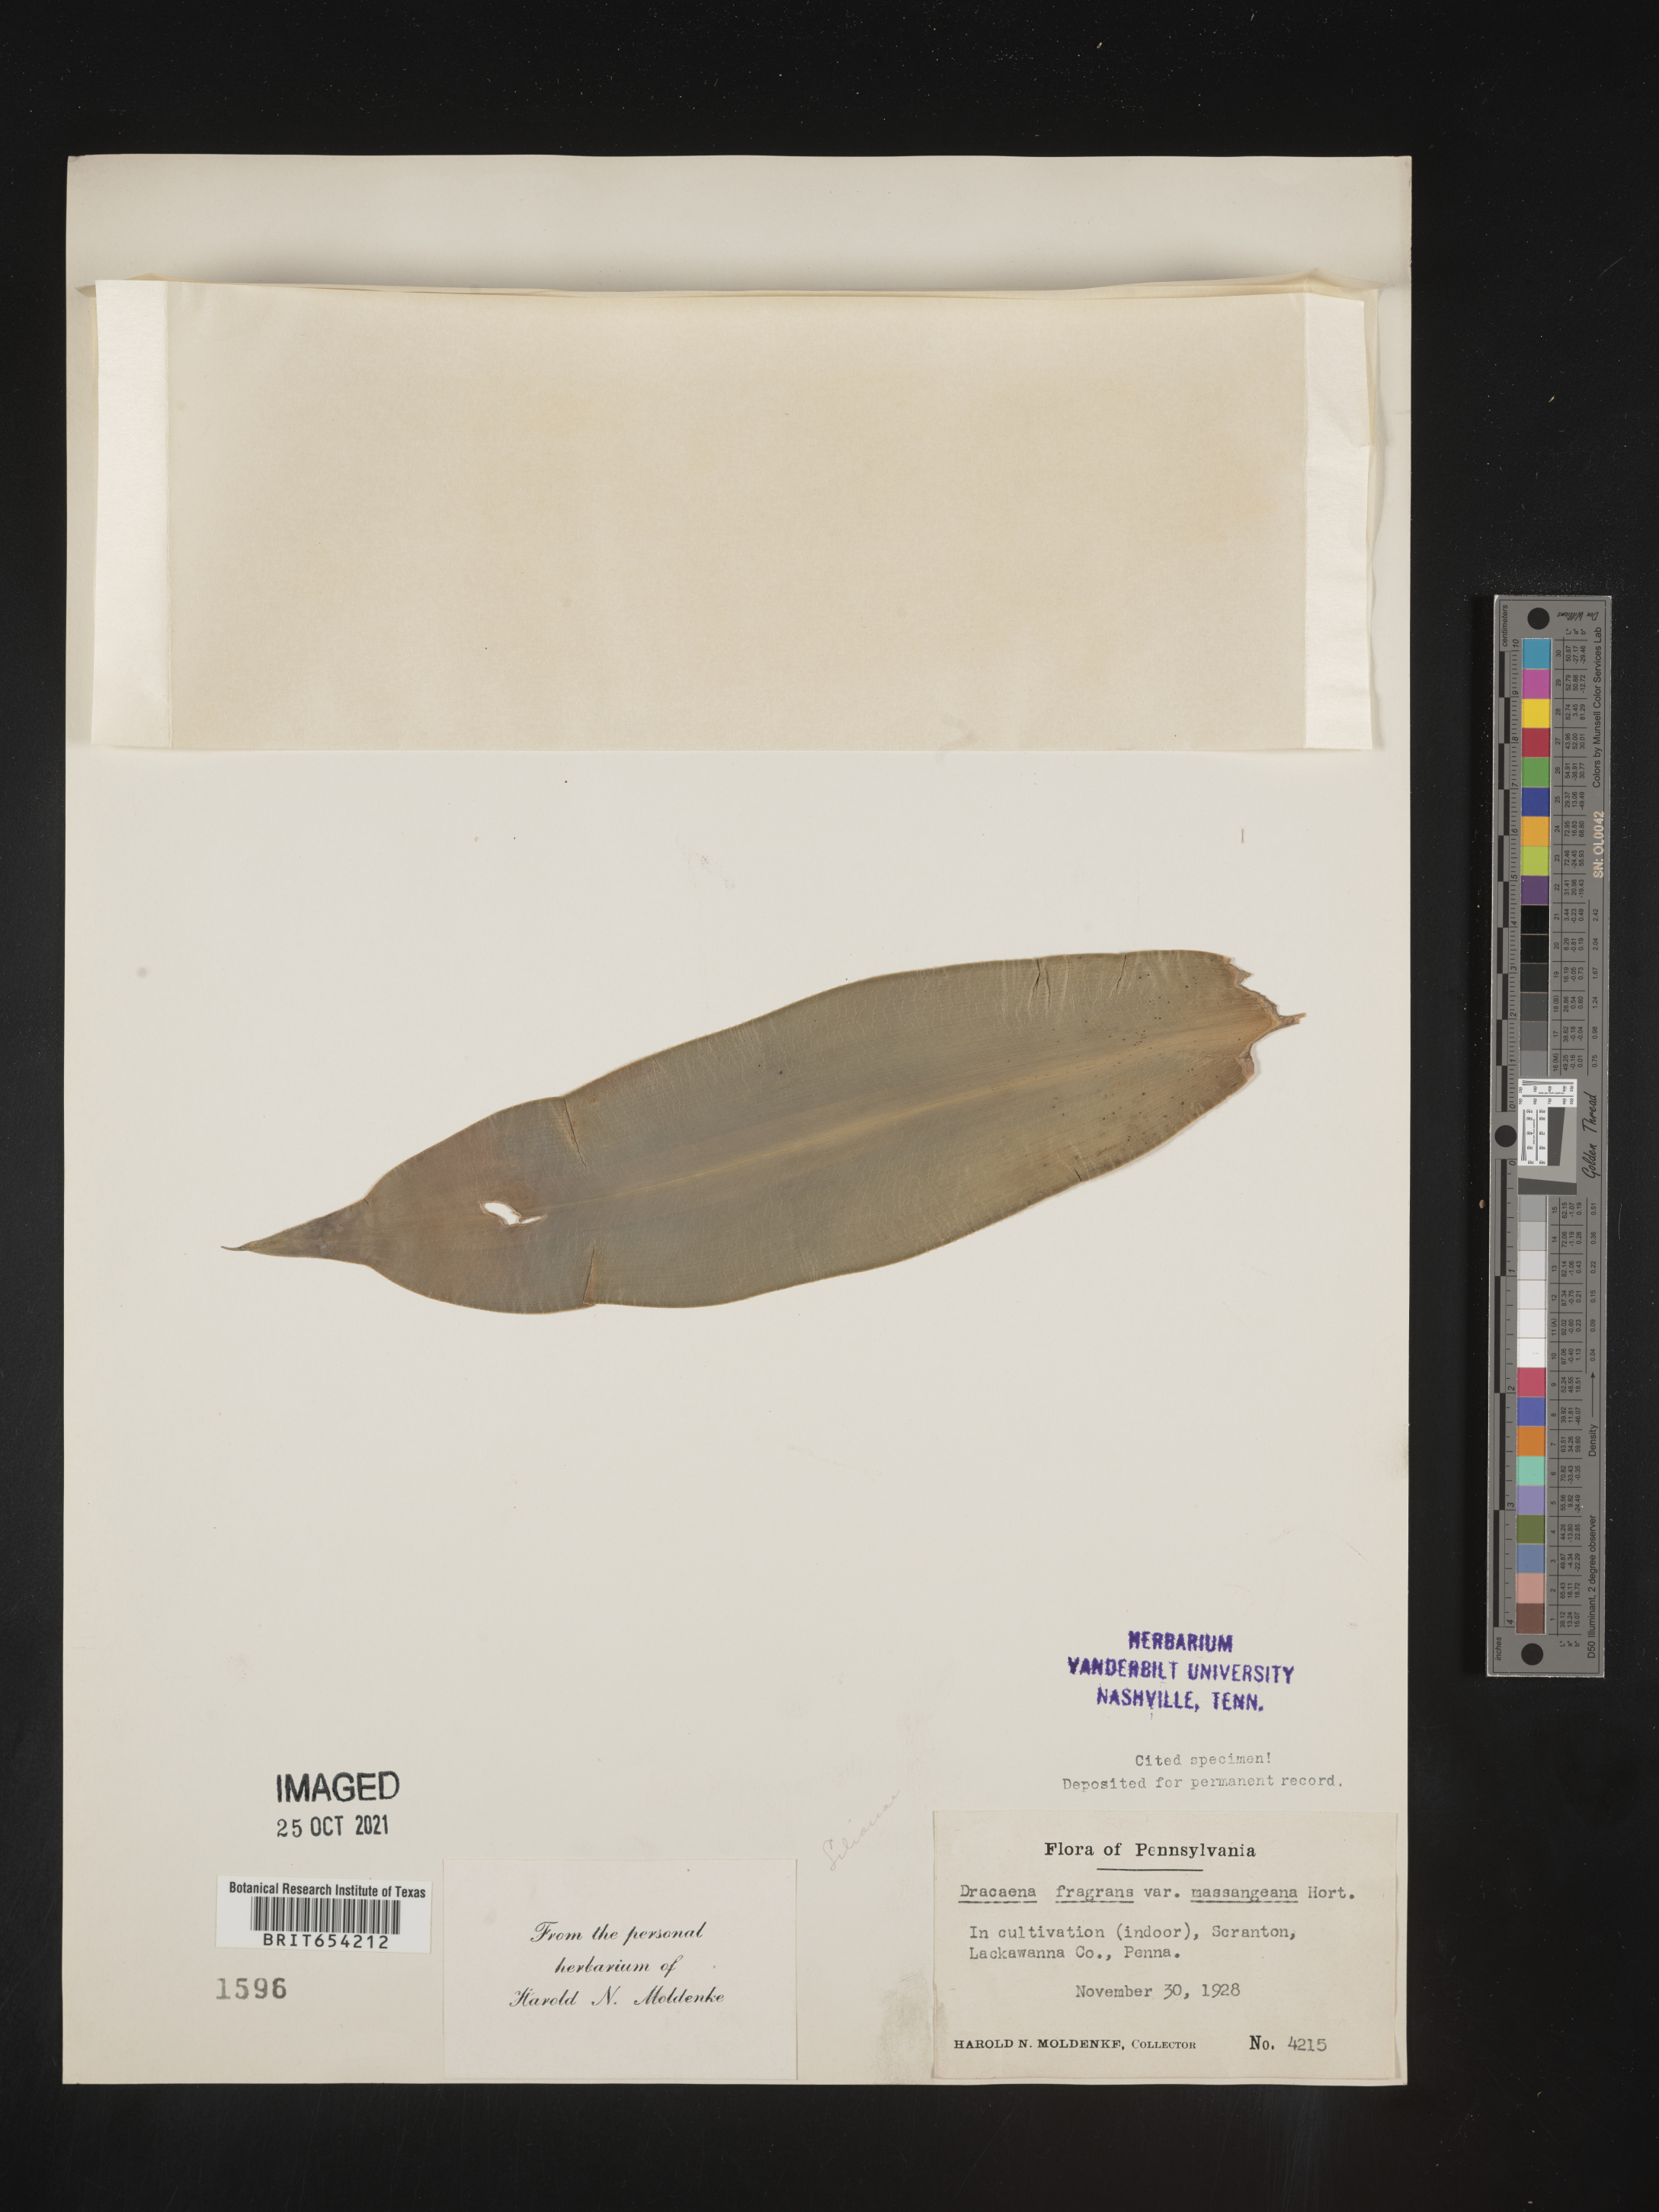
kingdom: Plantae
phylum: Tracheophyta
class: Liliopsida
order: Asparagales
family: Asparagaceae
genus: Dracaena
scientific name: Dracaena fragrans
